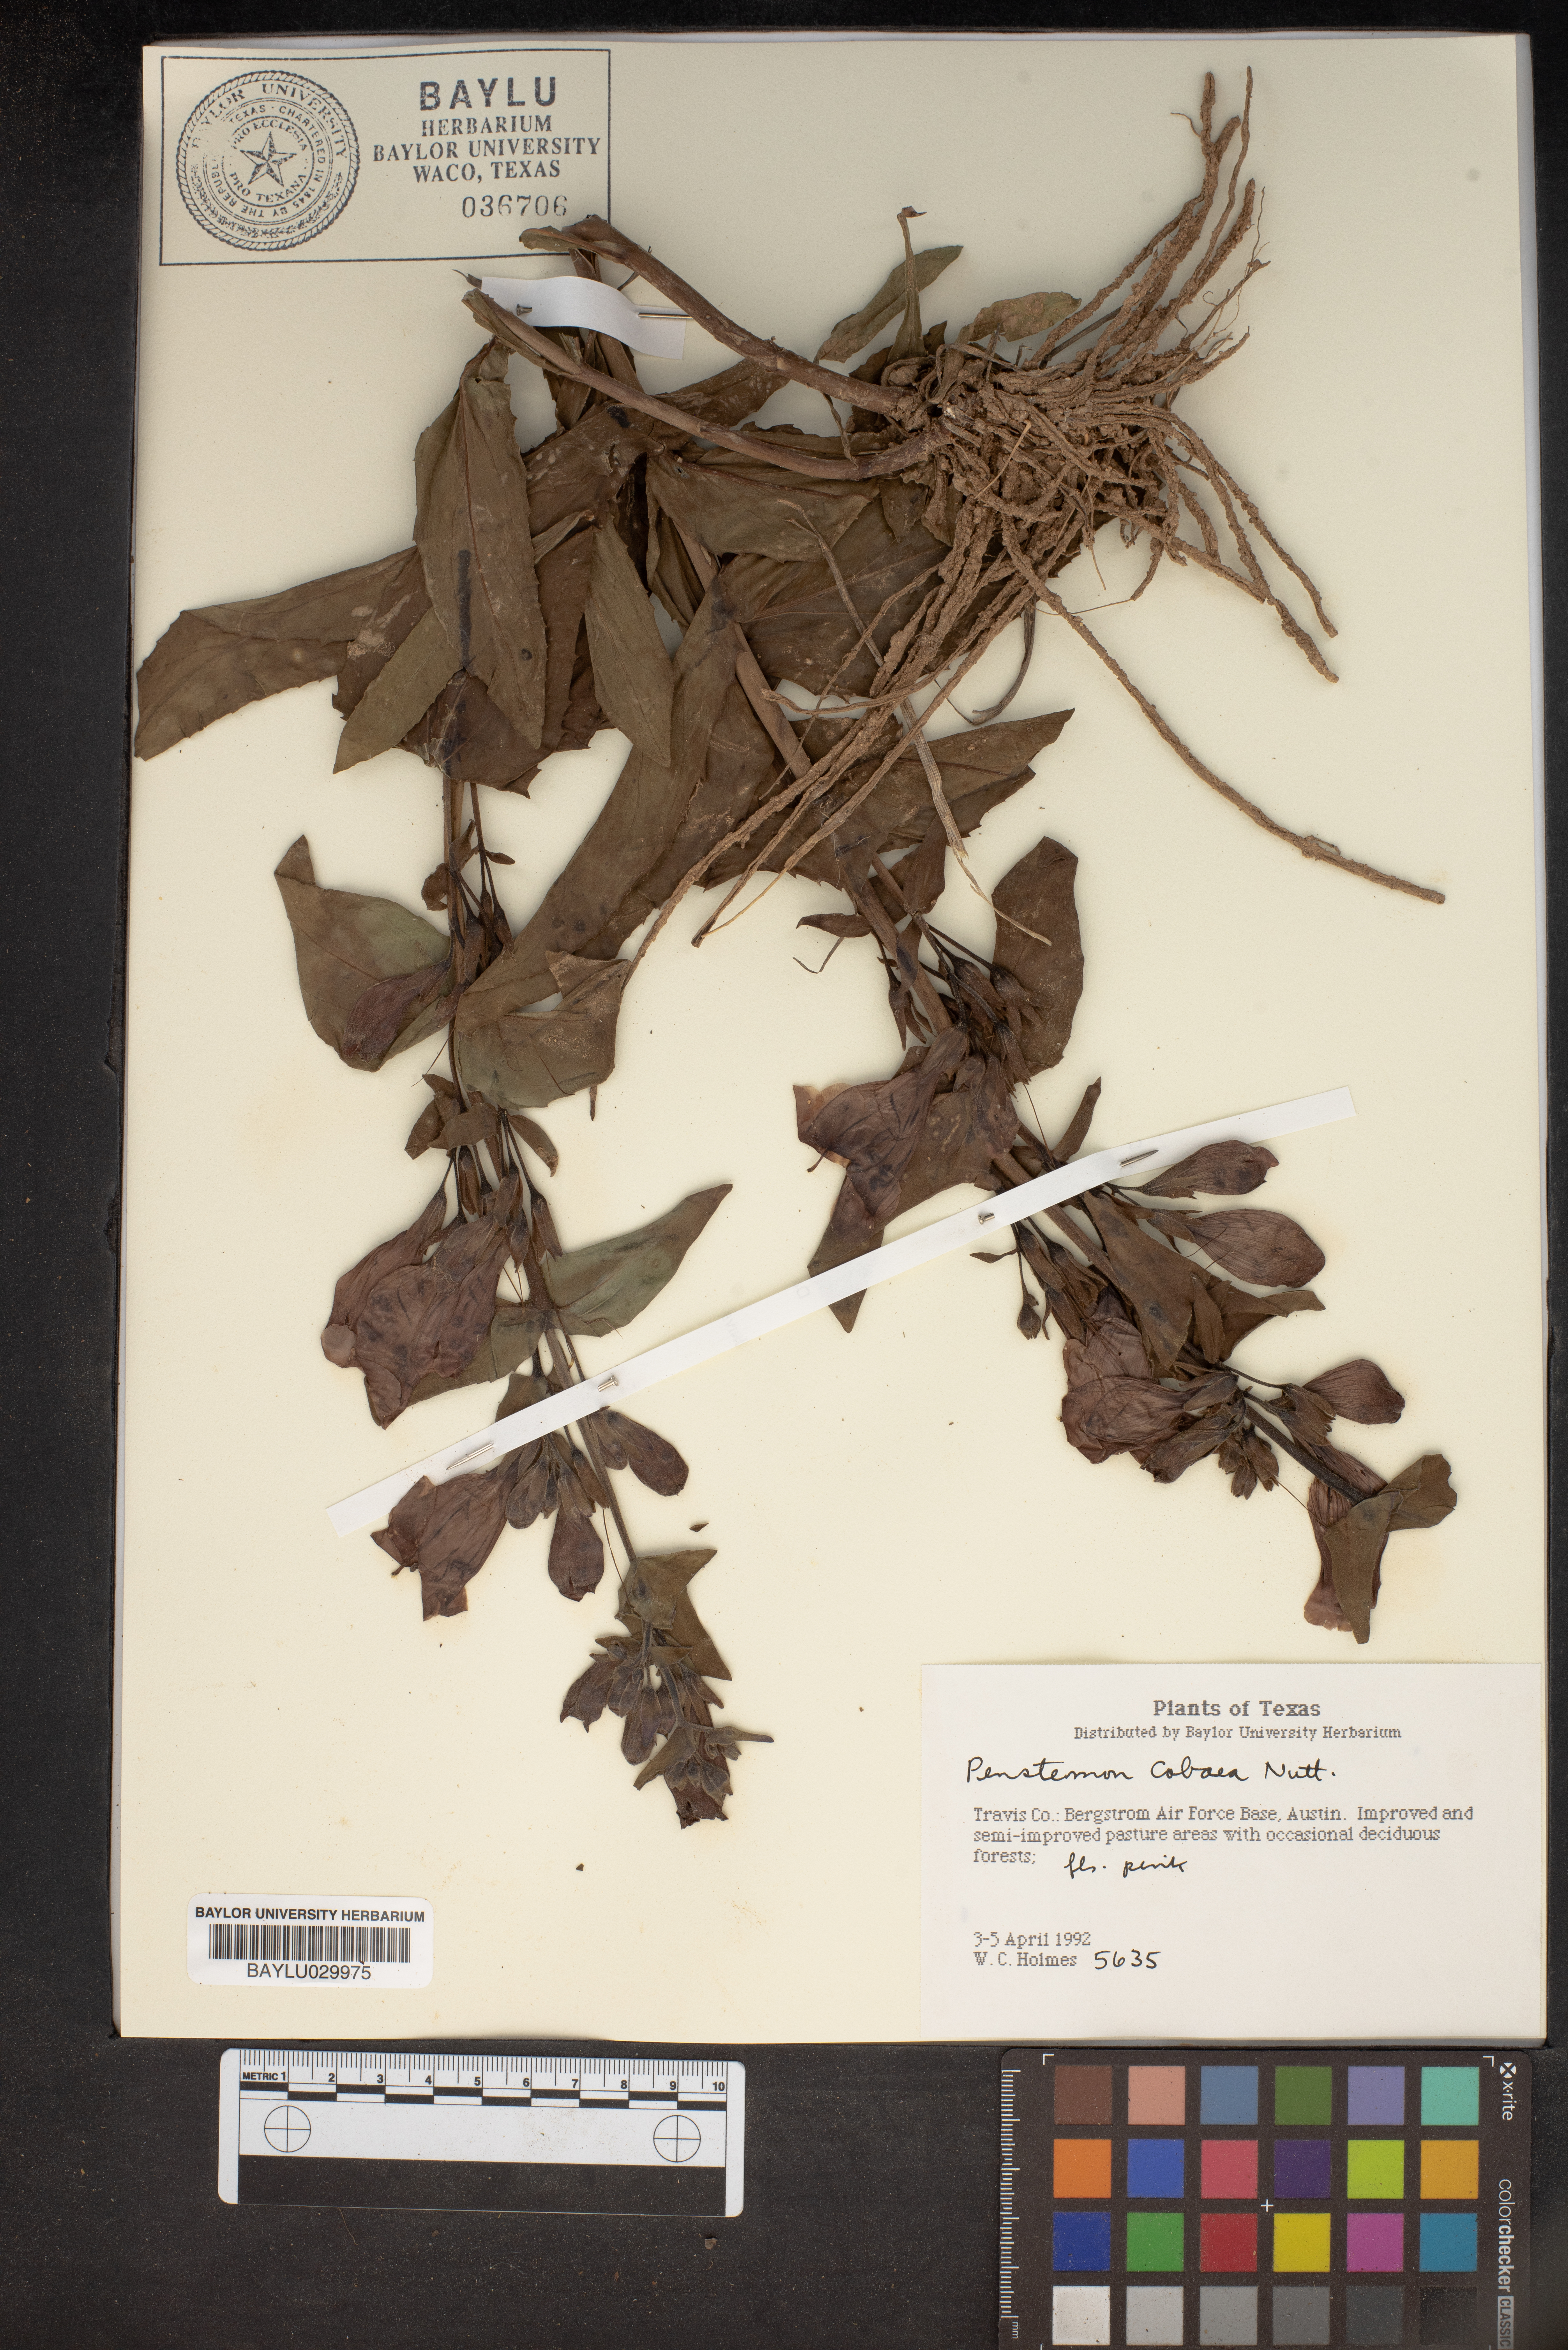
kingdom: Plantae
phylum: Tracheophyta
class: Magnoliopsida
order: Lamiales
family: Plantaginaceae
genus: Penstemon
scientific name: Penstemon cobaea
